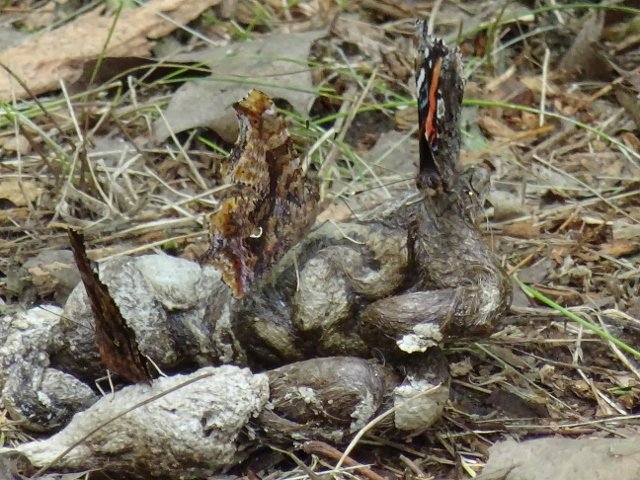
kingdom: Animalia
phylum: Arthropoda
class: Insecta
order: Lepidoptera
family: Nymphalidae
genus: Polygonia
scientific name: Polygonia comma
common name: Eastern Comma
